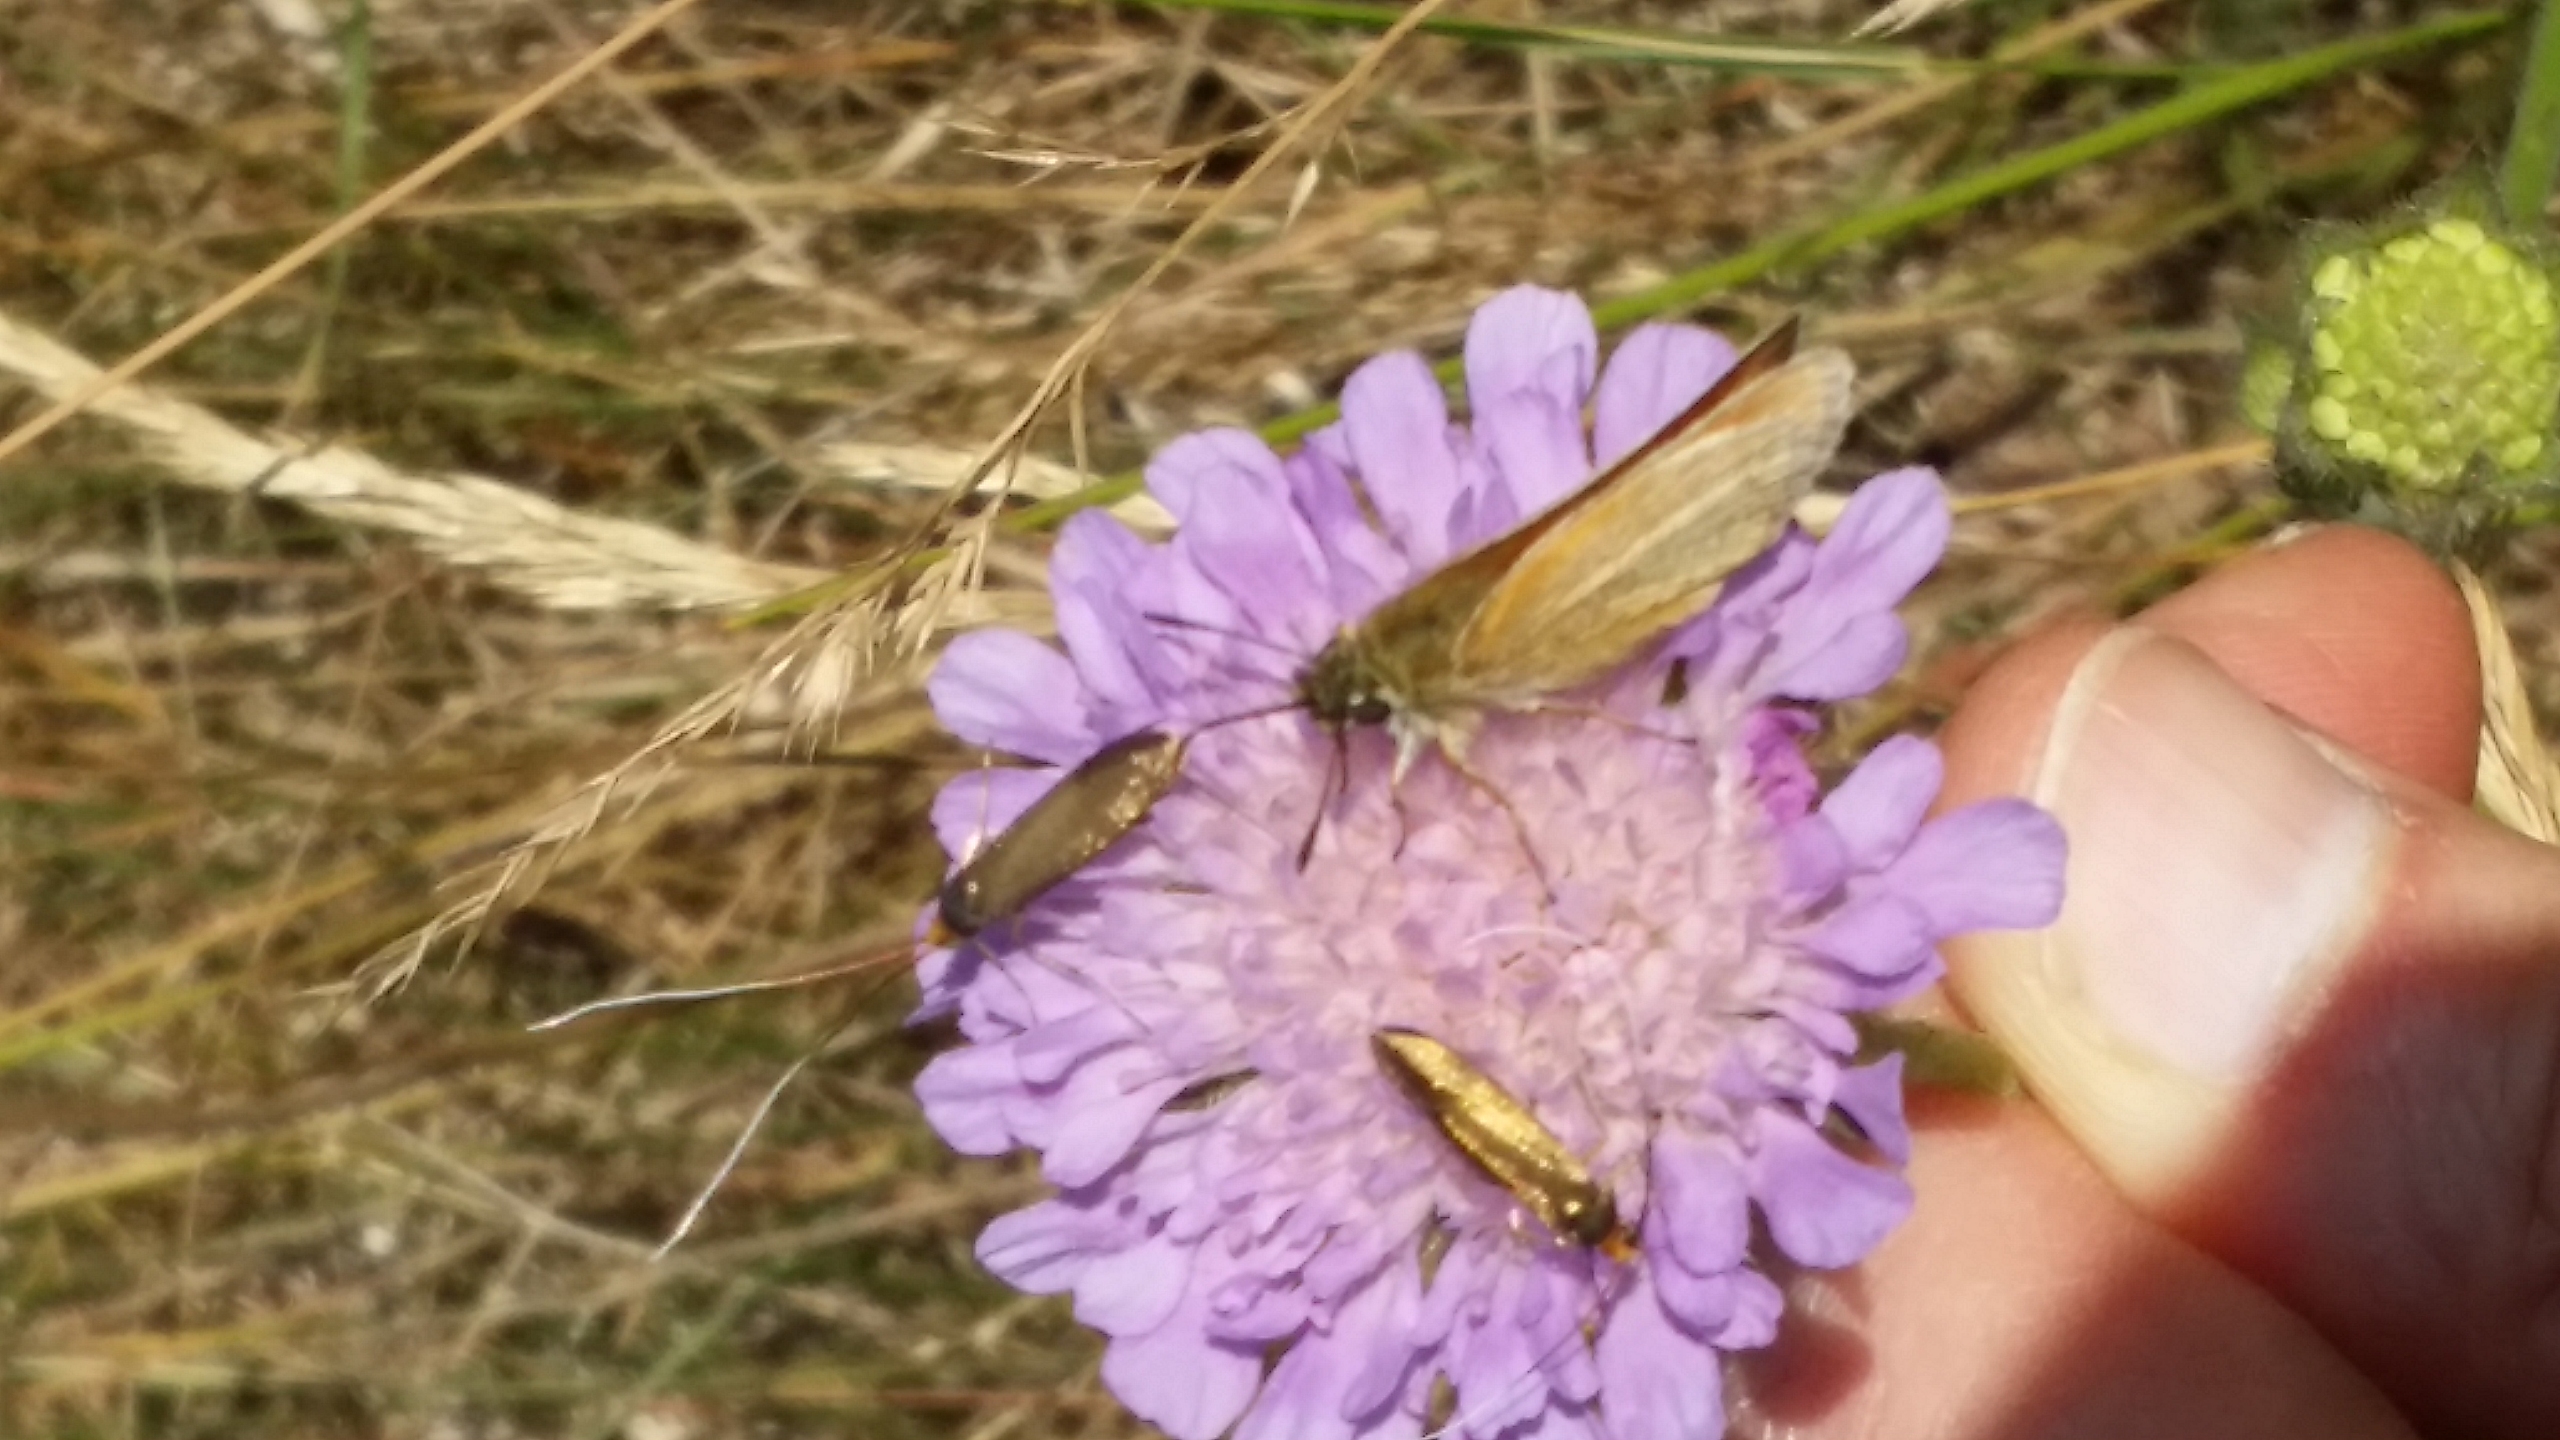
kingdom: Animalia
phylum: Arthropoda
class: Insecta
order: Lepidoptera
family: Hesperiidae
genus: Thymelicus
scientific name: Thymelicus lineola
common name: Stregbredpande
